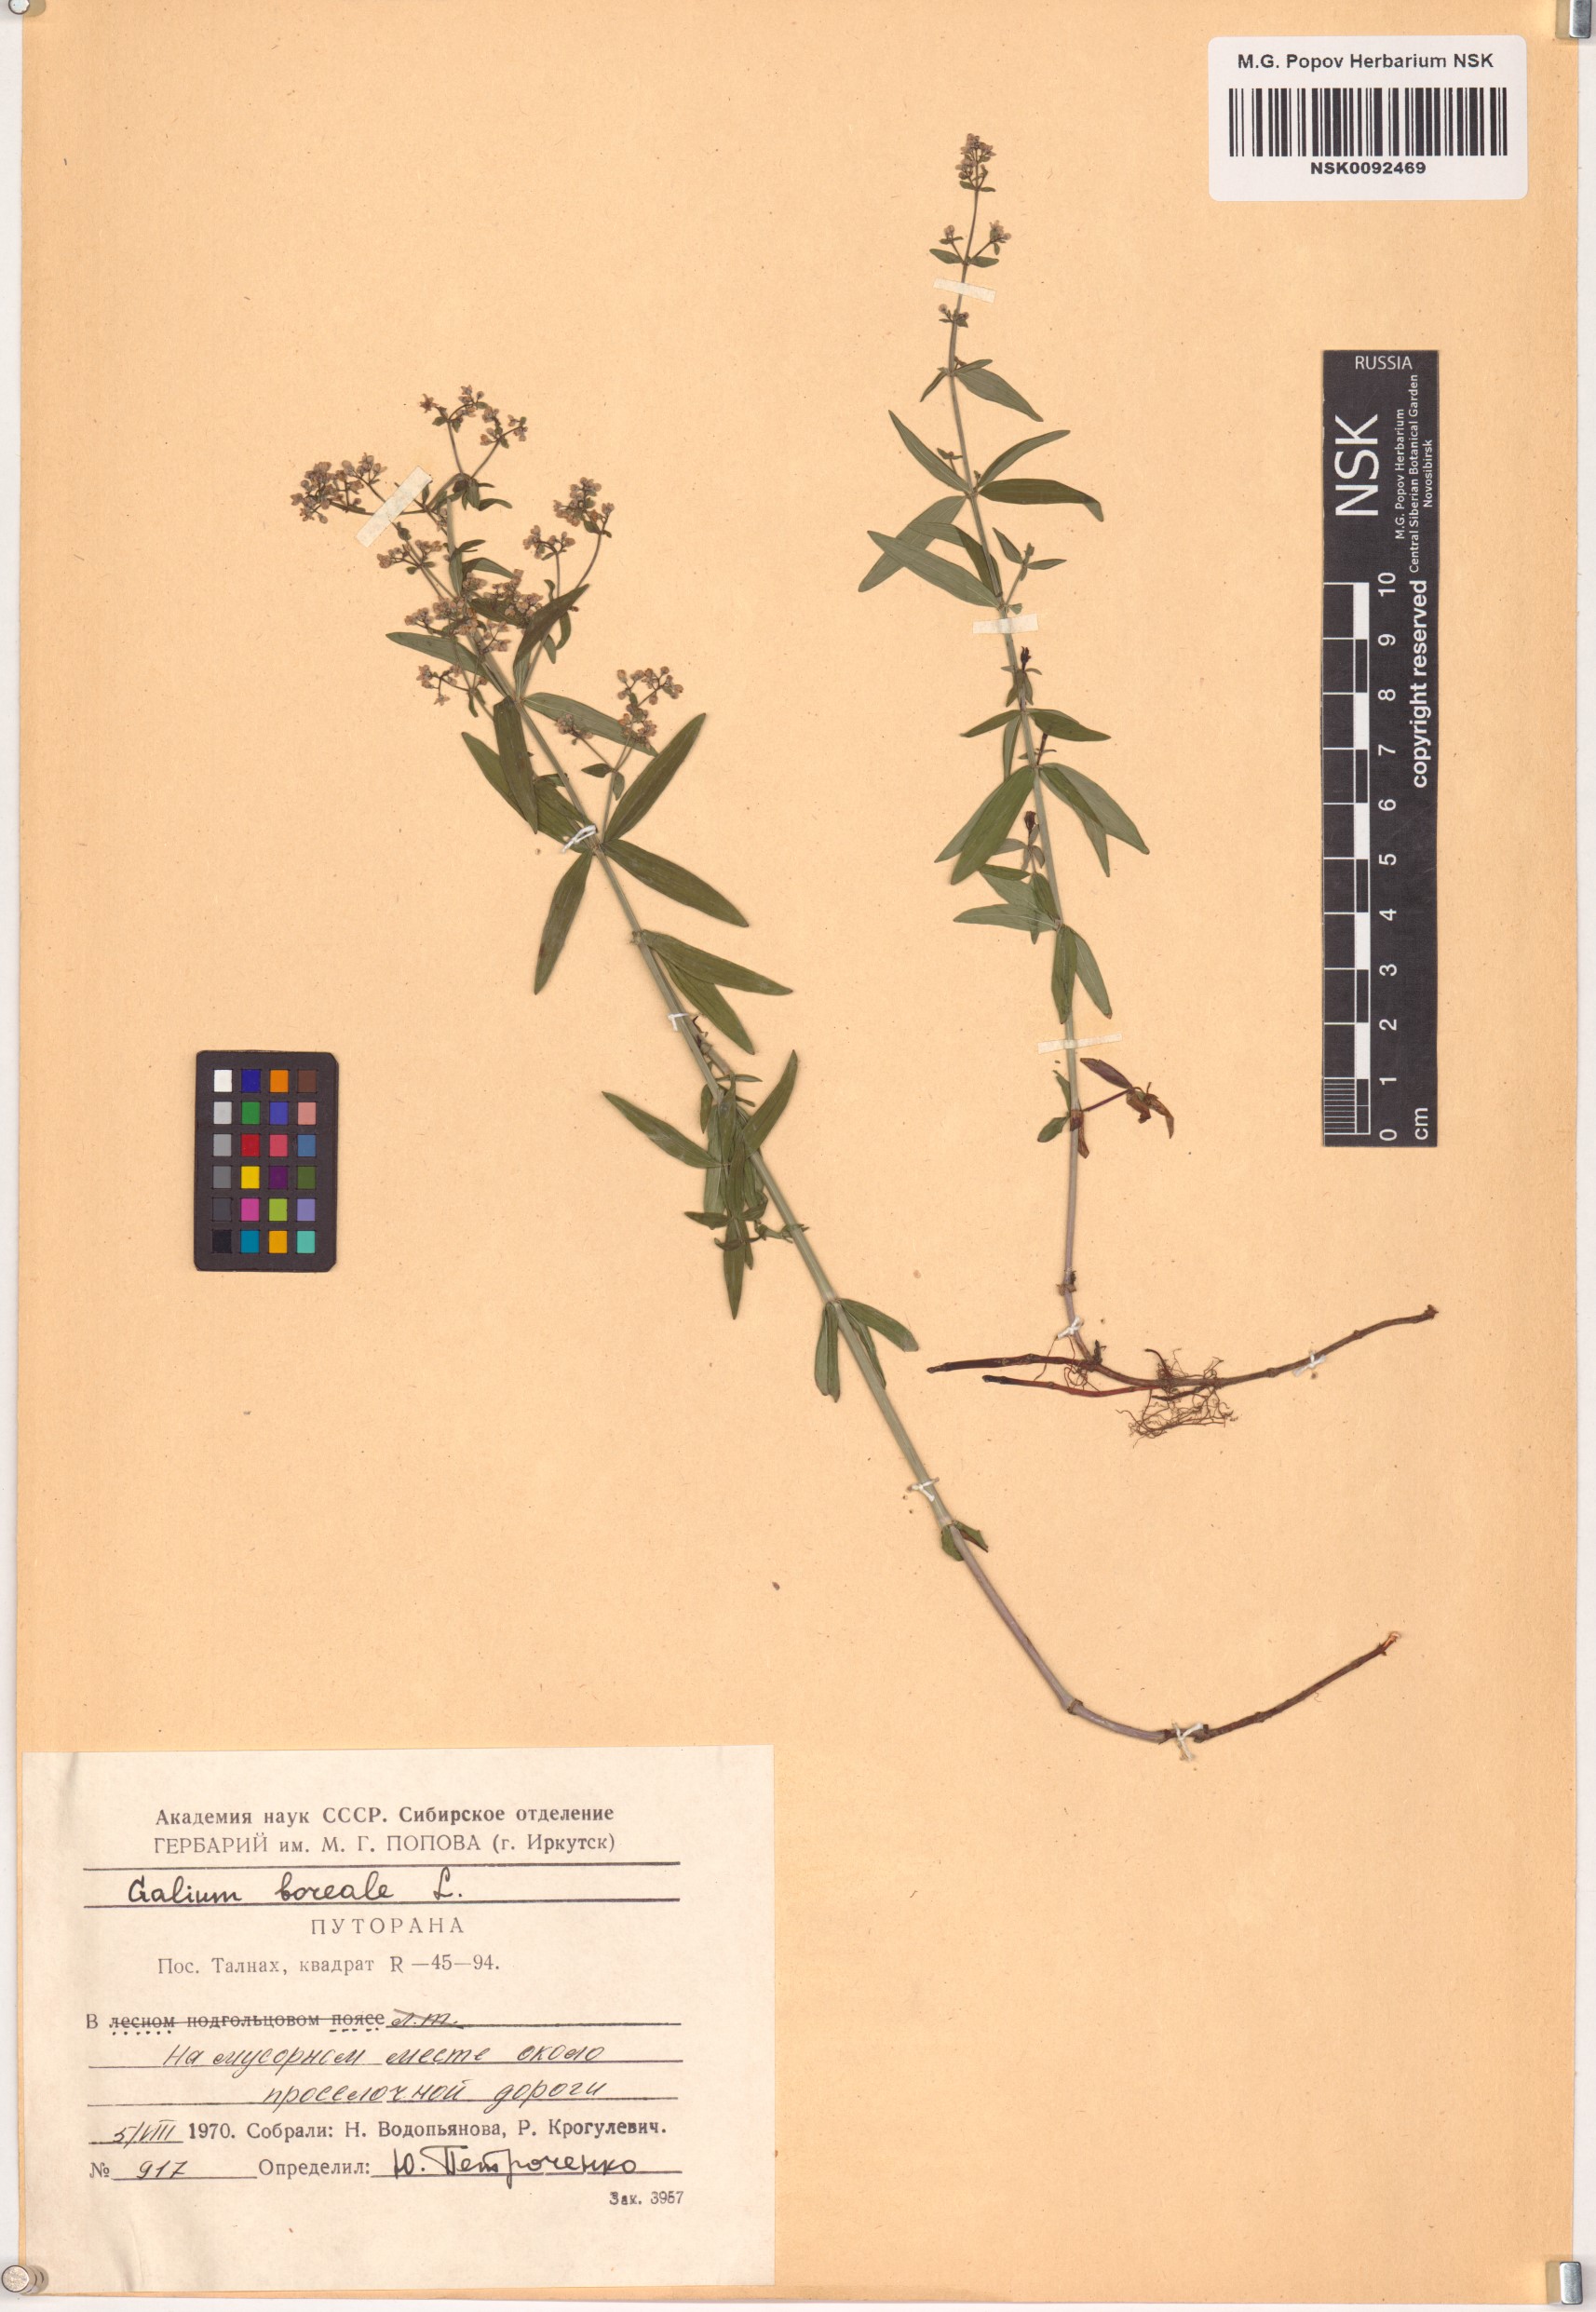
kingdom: Plantae
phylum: Tracheophyta
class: Magnoliopsida
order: Gentianales
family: Rubiaceae
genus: Galium
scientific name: Galium boreale
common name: Northern bedstraw
